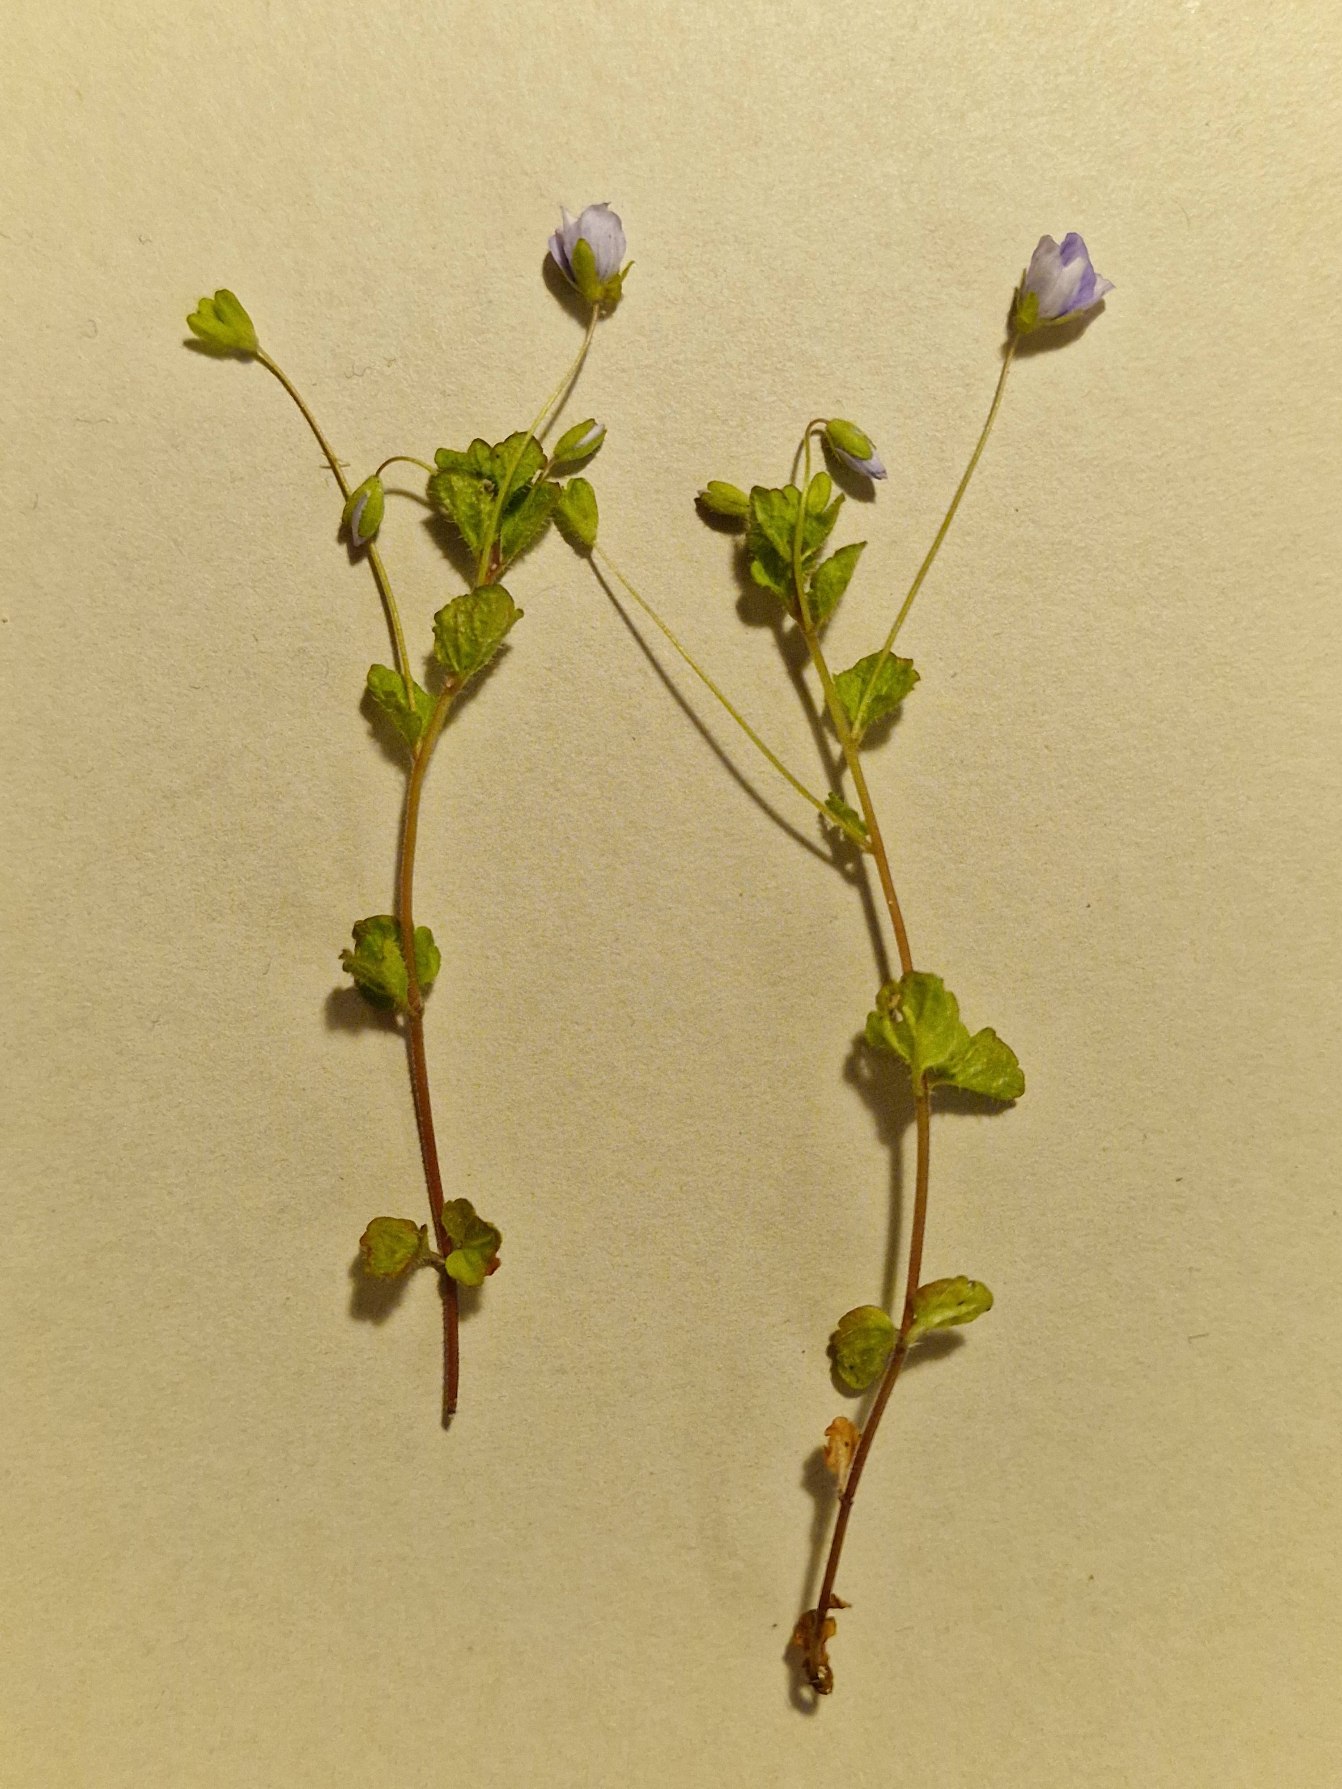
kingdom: Plantae
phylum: Tracheophyta
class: Magnoliopsida
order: Lamiales
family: Plantaginaceae
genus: Veronica
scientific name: Veronica filiformis
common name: Tråd-ærenpris
